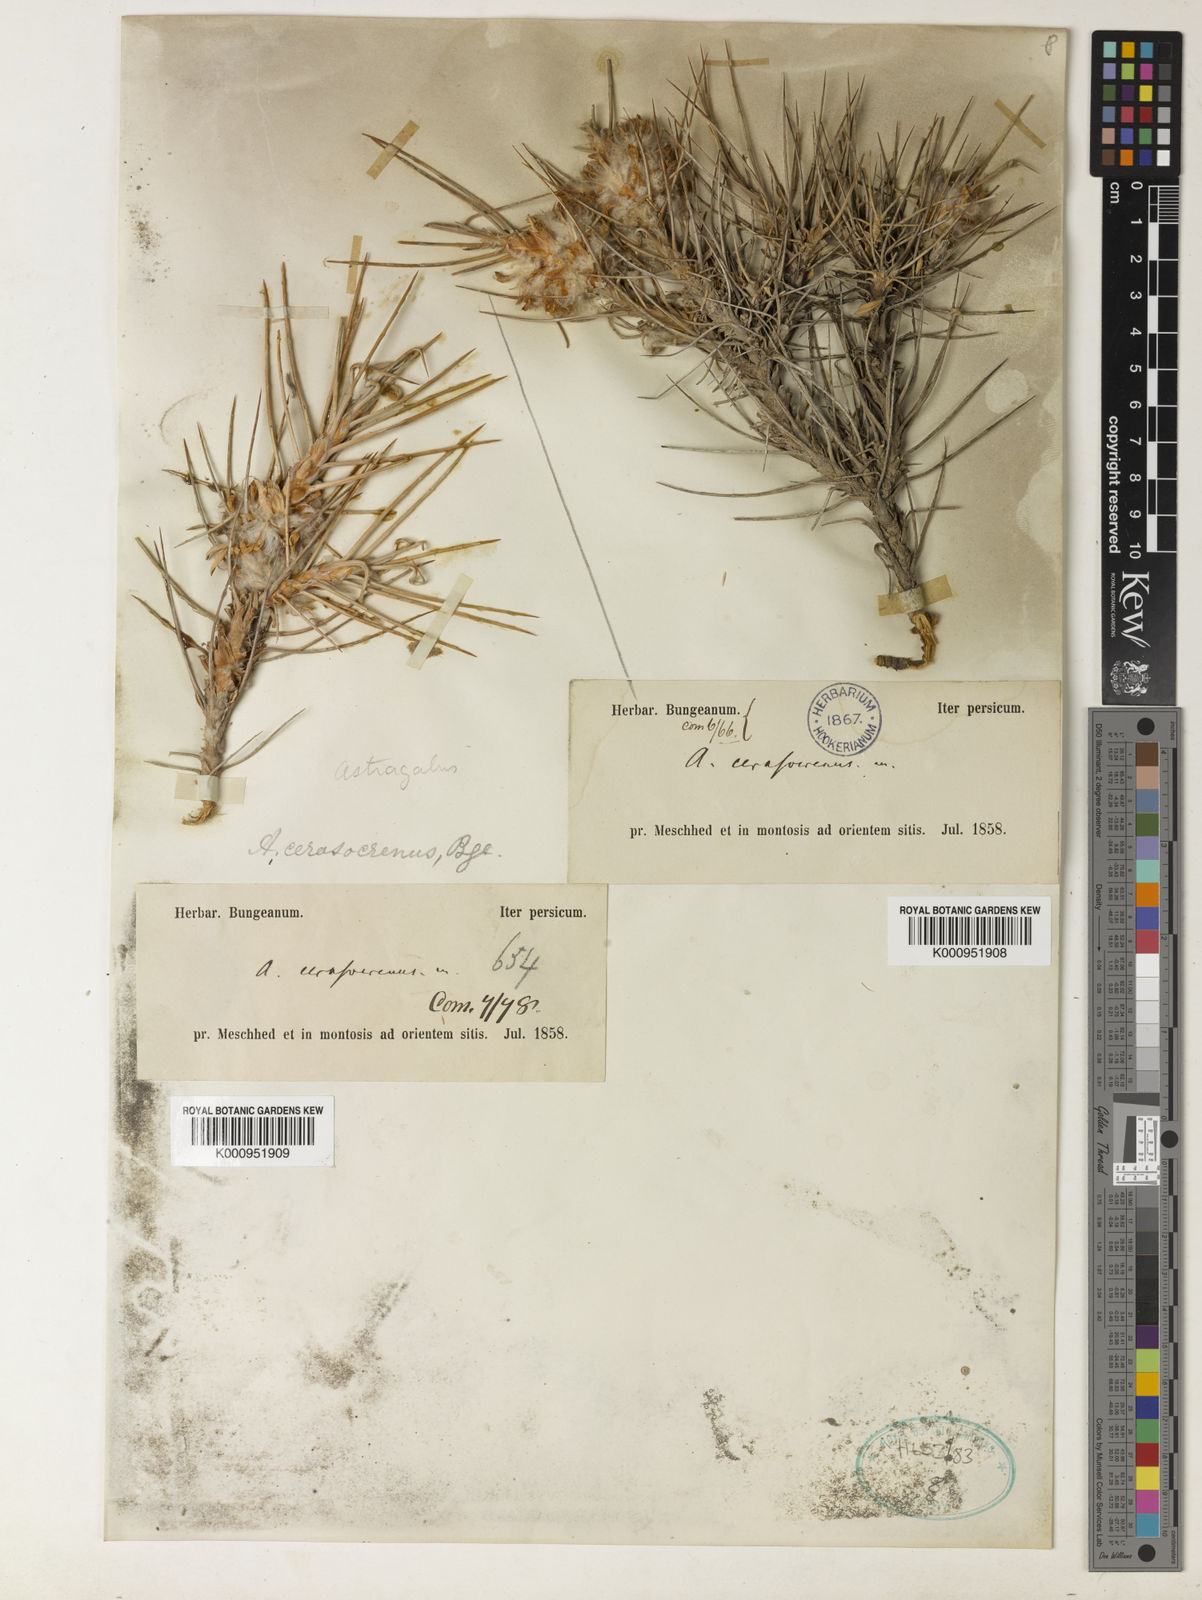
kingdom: Plantae
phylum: Tracheophyta
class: Magnoliopsida
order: Fabales
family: Fabaceae
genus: Astragalus
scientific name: Astragalus cerasocrenus
